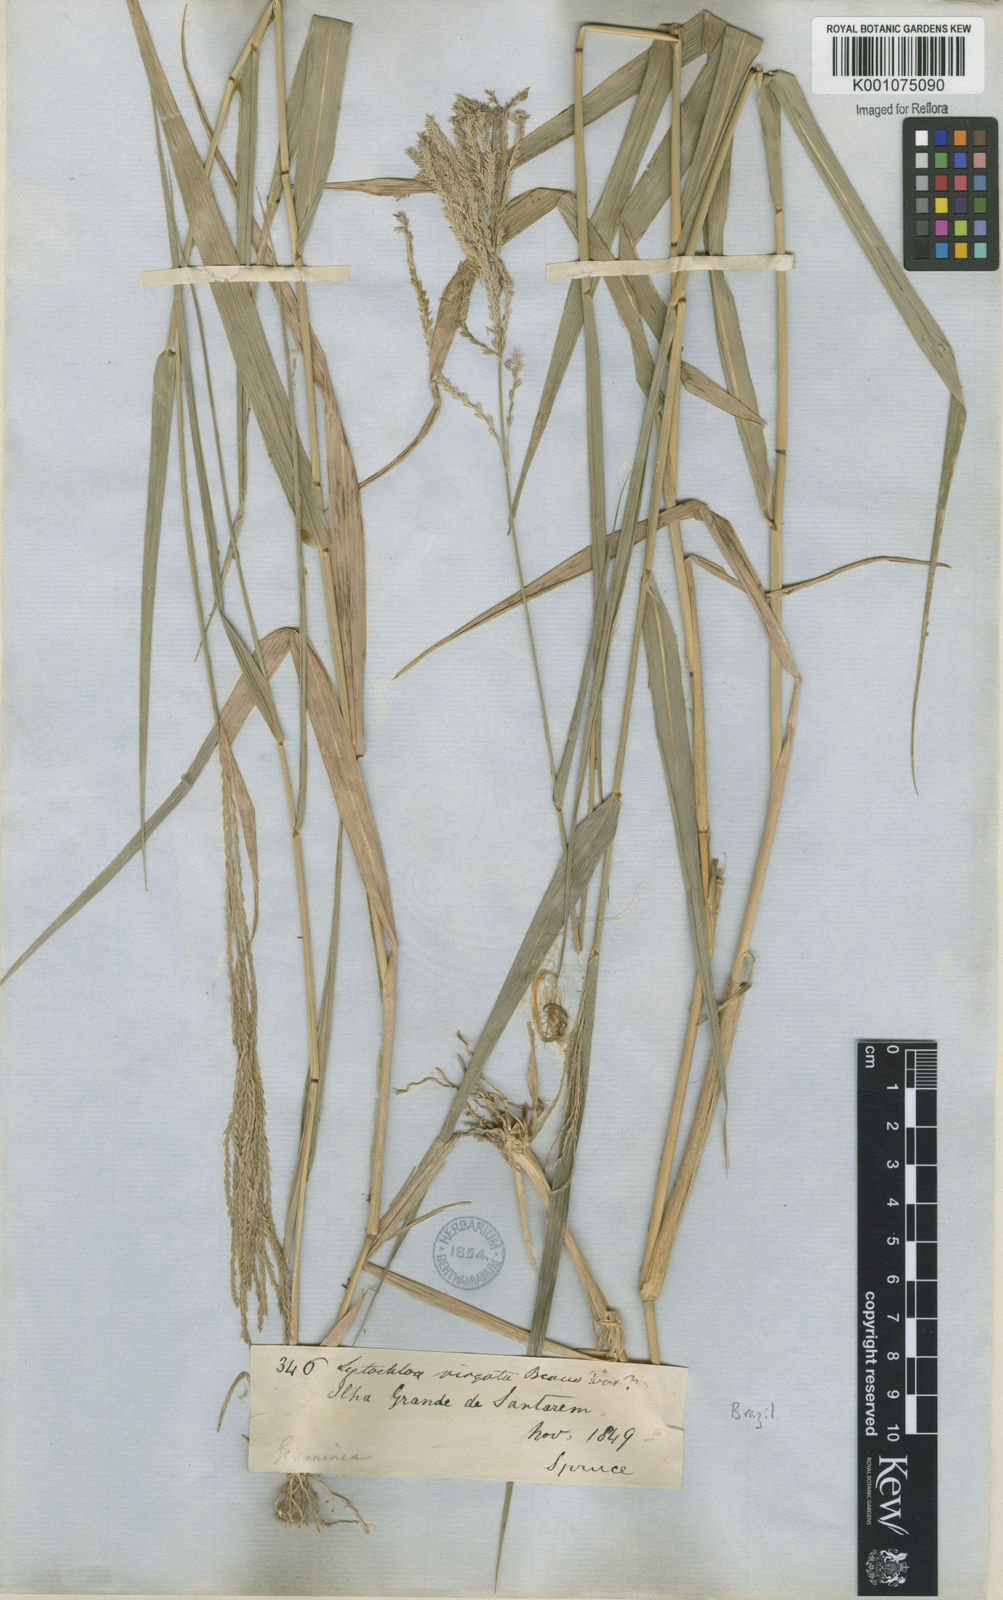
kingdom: Plantae
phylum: Tracheophyta
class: Liliopsida
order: Poales
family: Poaceae
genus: Leptochloa
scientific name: Leptochloa virgata
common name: Tropical sprangletop
